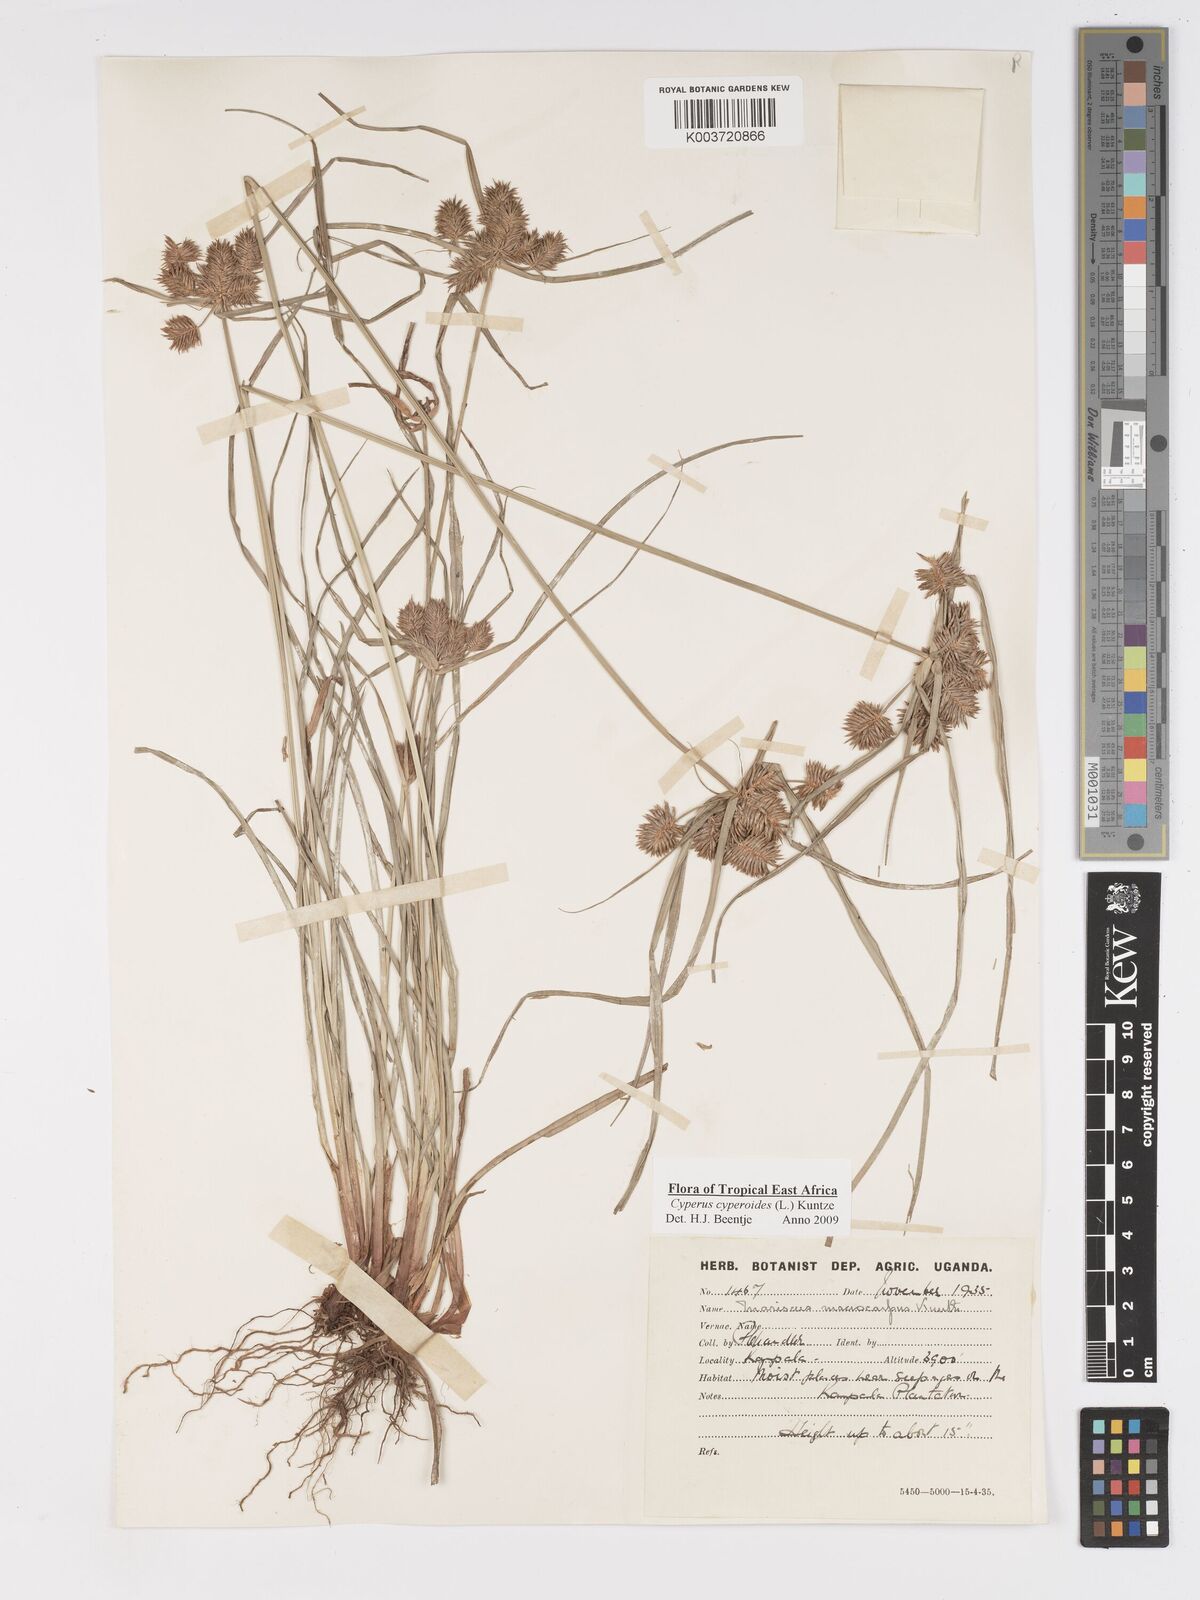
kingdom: Plantae
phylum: Tracheophyta
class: Liliopsida
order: Poales
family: Cyperaceae
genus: Cyperus
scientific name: Cyperus macrocarpus
